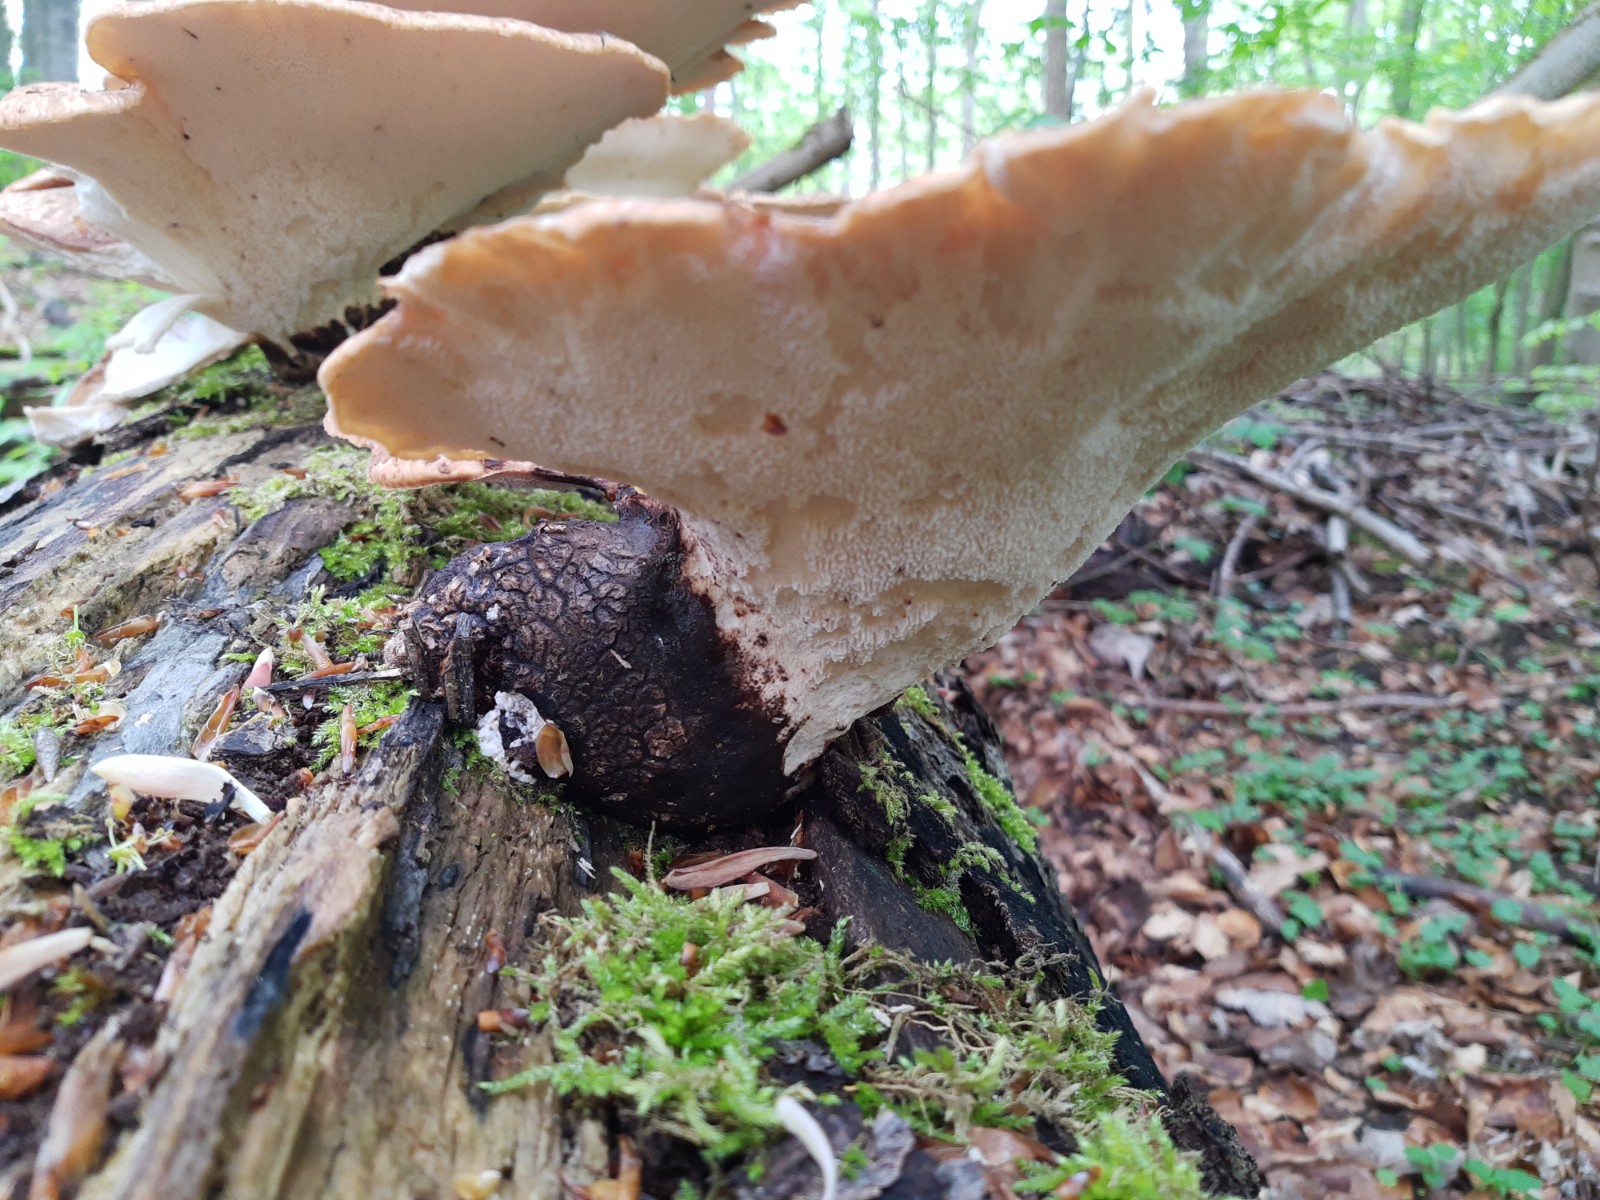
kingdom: Fungi
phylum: Basidiomycota
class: Agaricomycetes
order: Polyporales
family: Polyporaceae
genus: Cerioporus
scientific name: Cerioporus squamosus
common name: skællet stilkporesvamp
